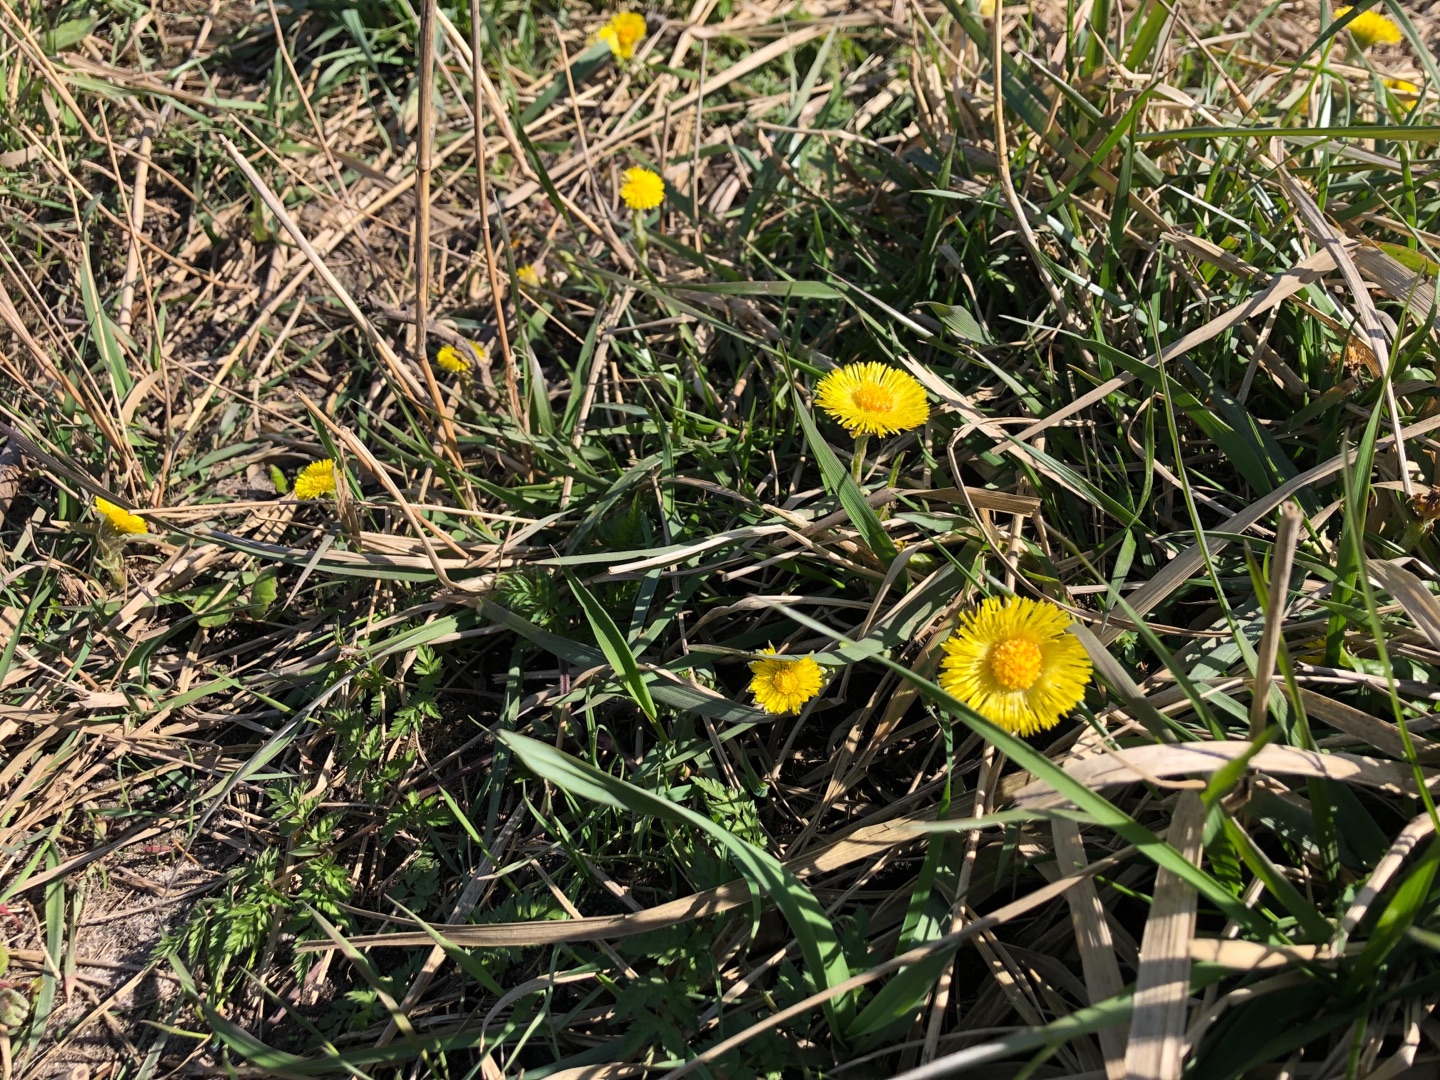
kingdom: Plantae
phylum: Tracheophyta
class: Magnoliopsida
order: Asterales
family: Asteraceae
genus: Tussilago
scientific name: Tussilago farfara
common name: Følfod
